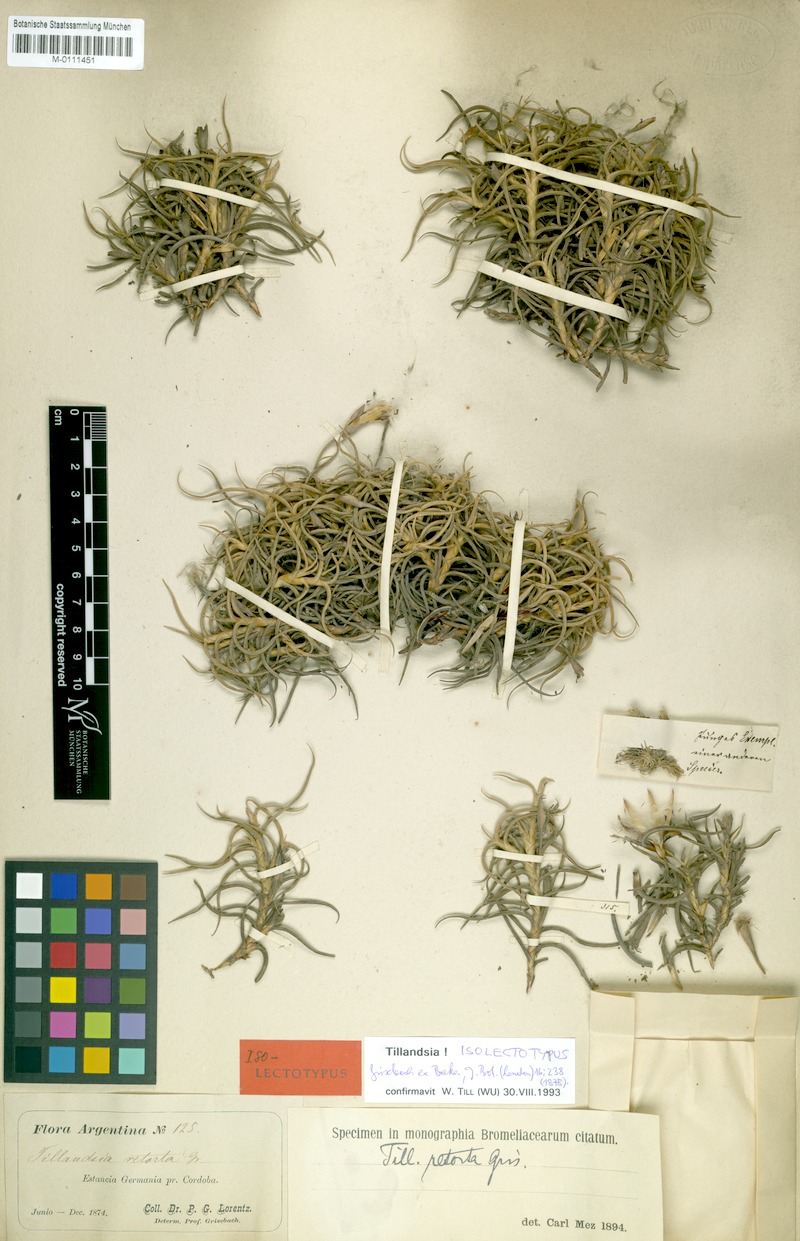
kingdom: Plantae
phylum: Tracheophyta
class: Liliopsida
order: Poales
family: Bromeliaceae
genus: Tillandsia
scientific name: Tillandsia retorta
